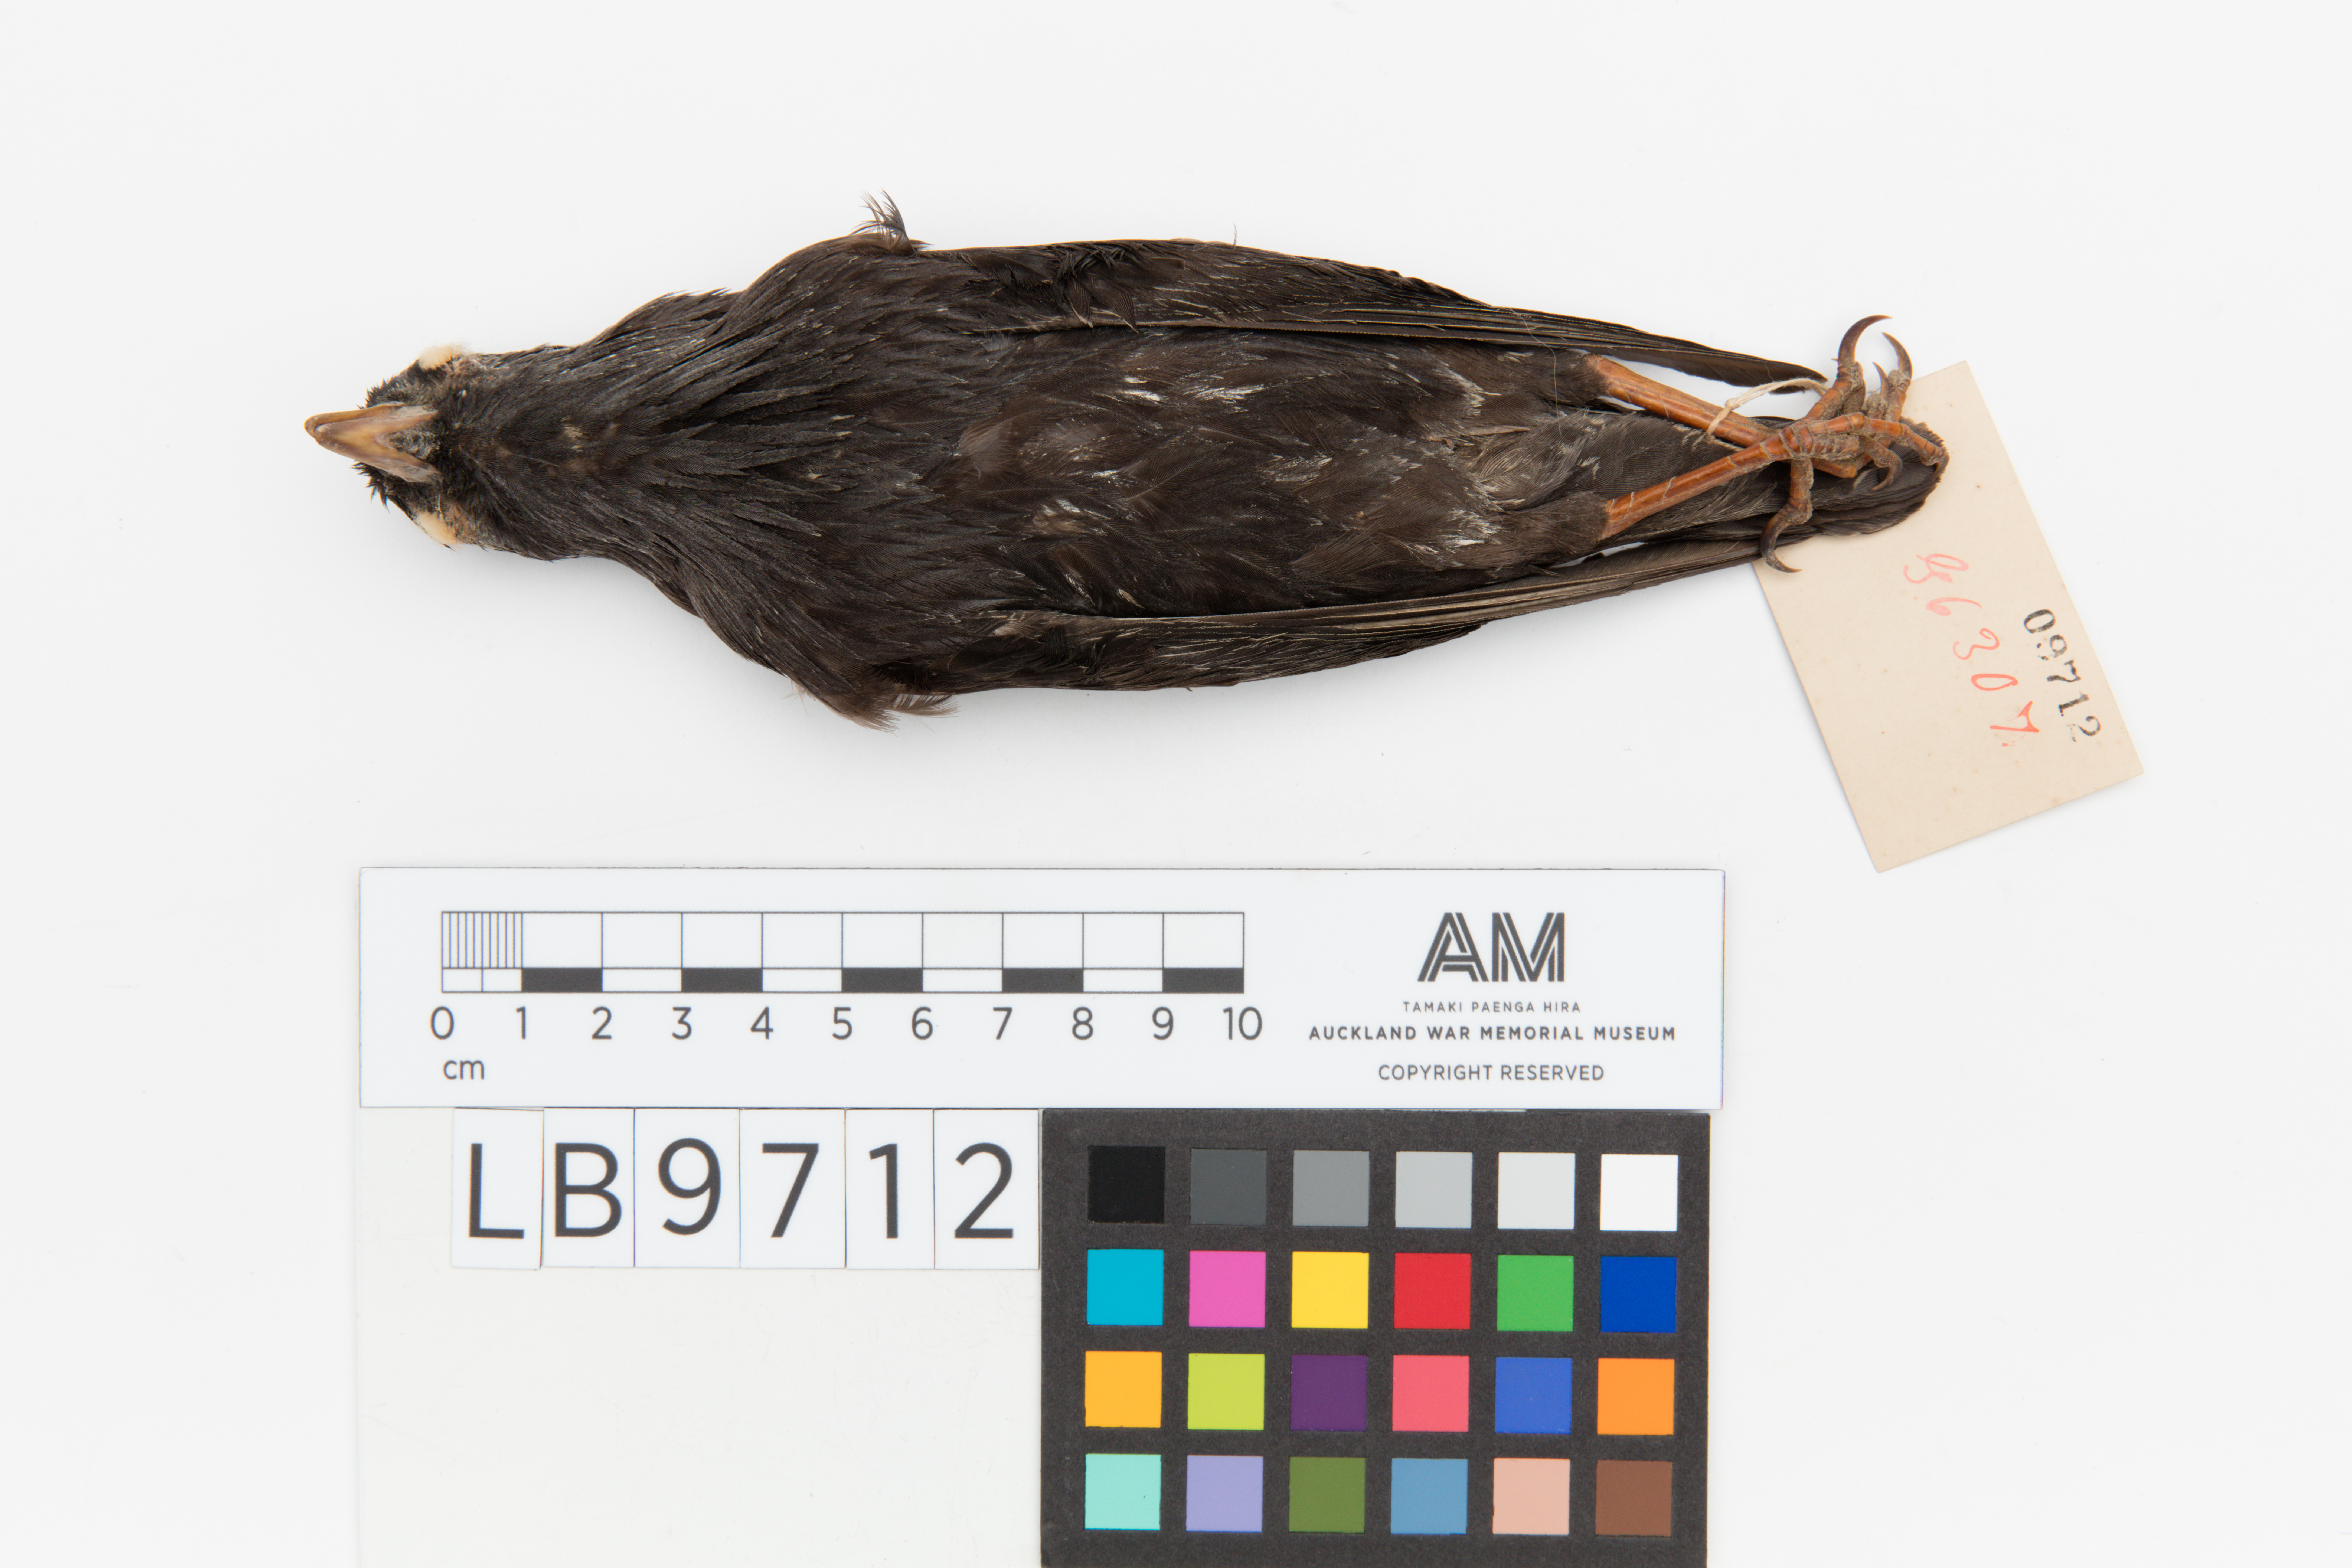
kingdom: Animalia
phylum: Chordata
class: Aves
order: Passeriformes
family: Sturnidae
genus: Sturnus
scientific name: Sturnus unicolor
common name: Spotless starling
